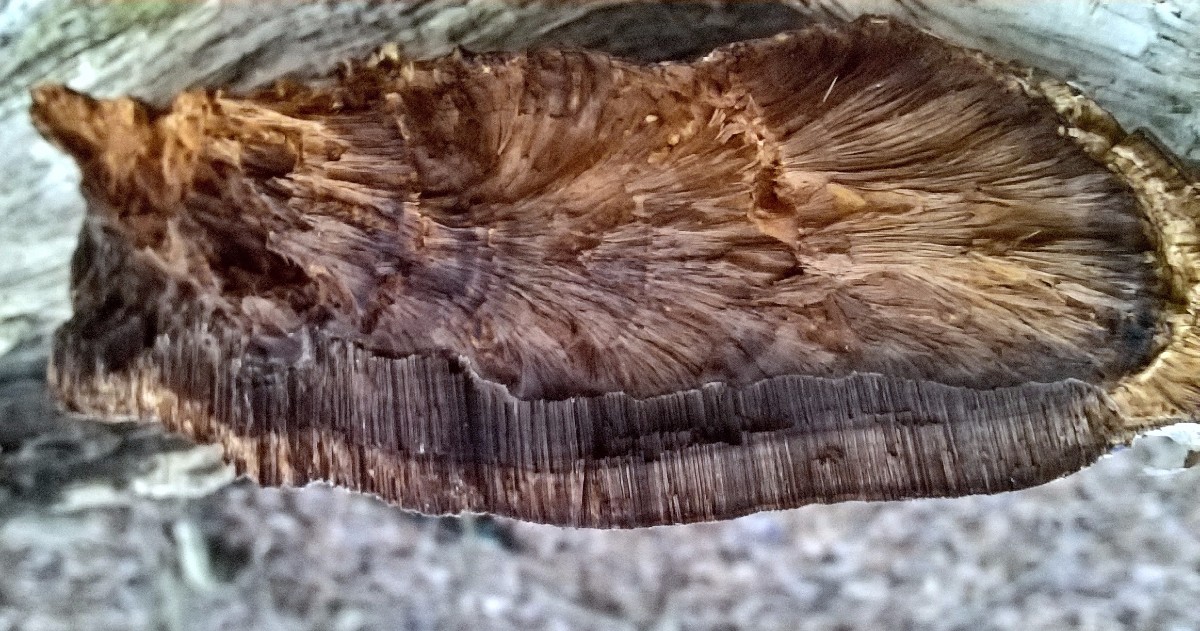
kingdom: Fungi
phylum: Basidiomycota
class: Agaricomycetes
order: Hymenochaetales
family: Hymenochaetaceae
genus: Pseudoinonotus
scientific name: Pseudoinonotus dryadeus
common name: ege-spejlporesvamp
